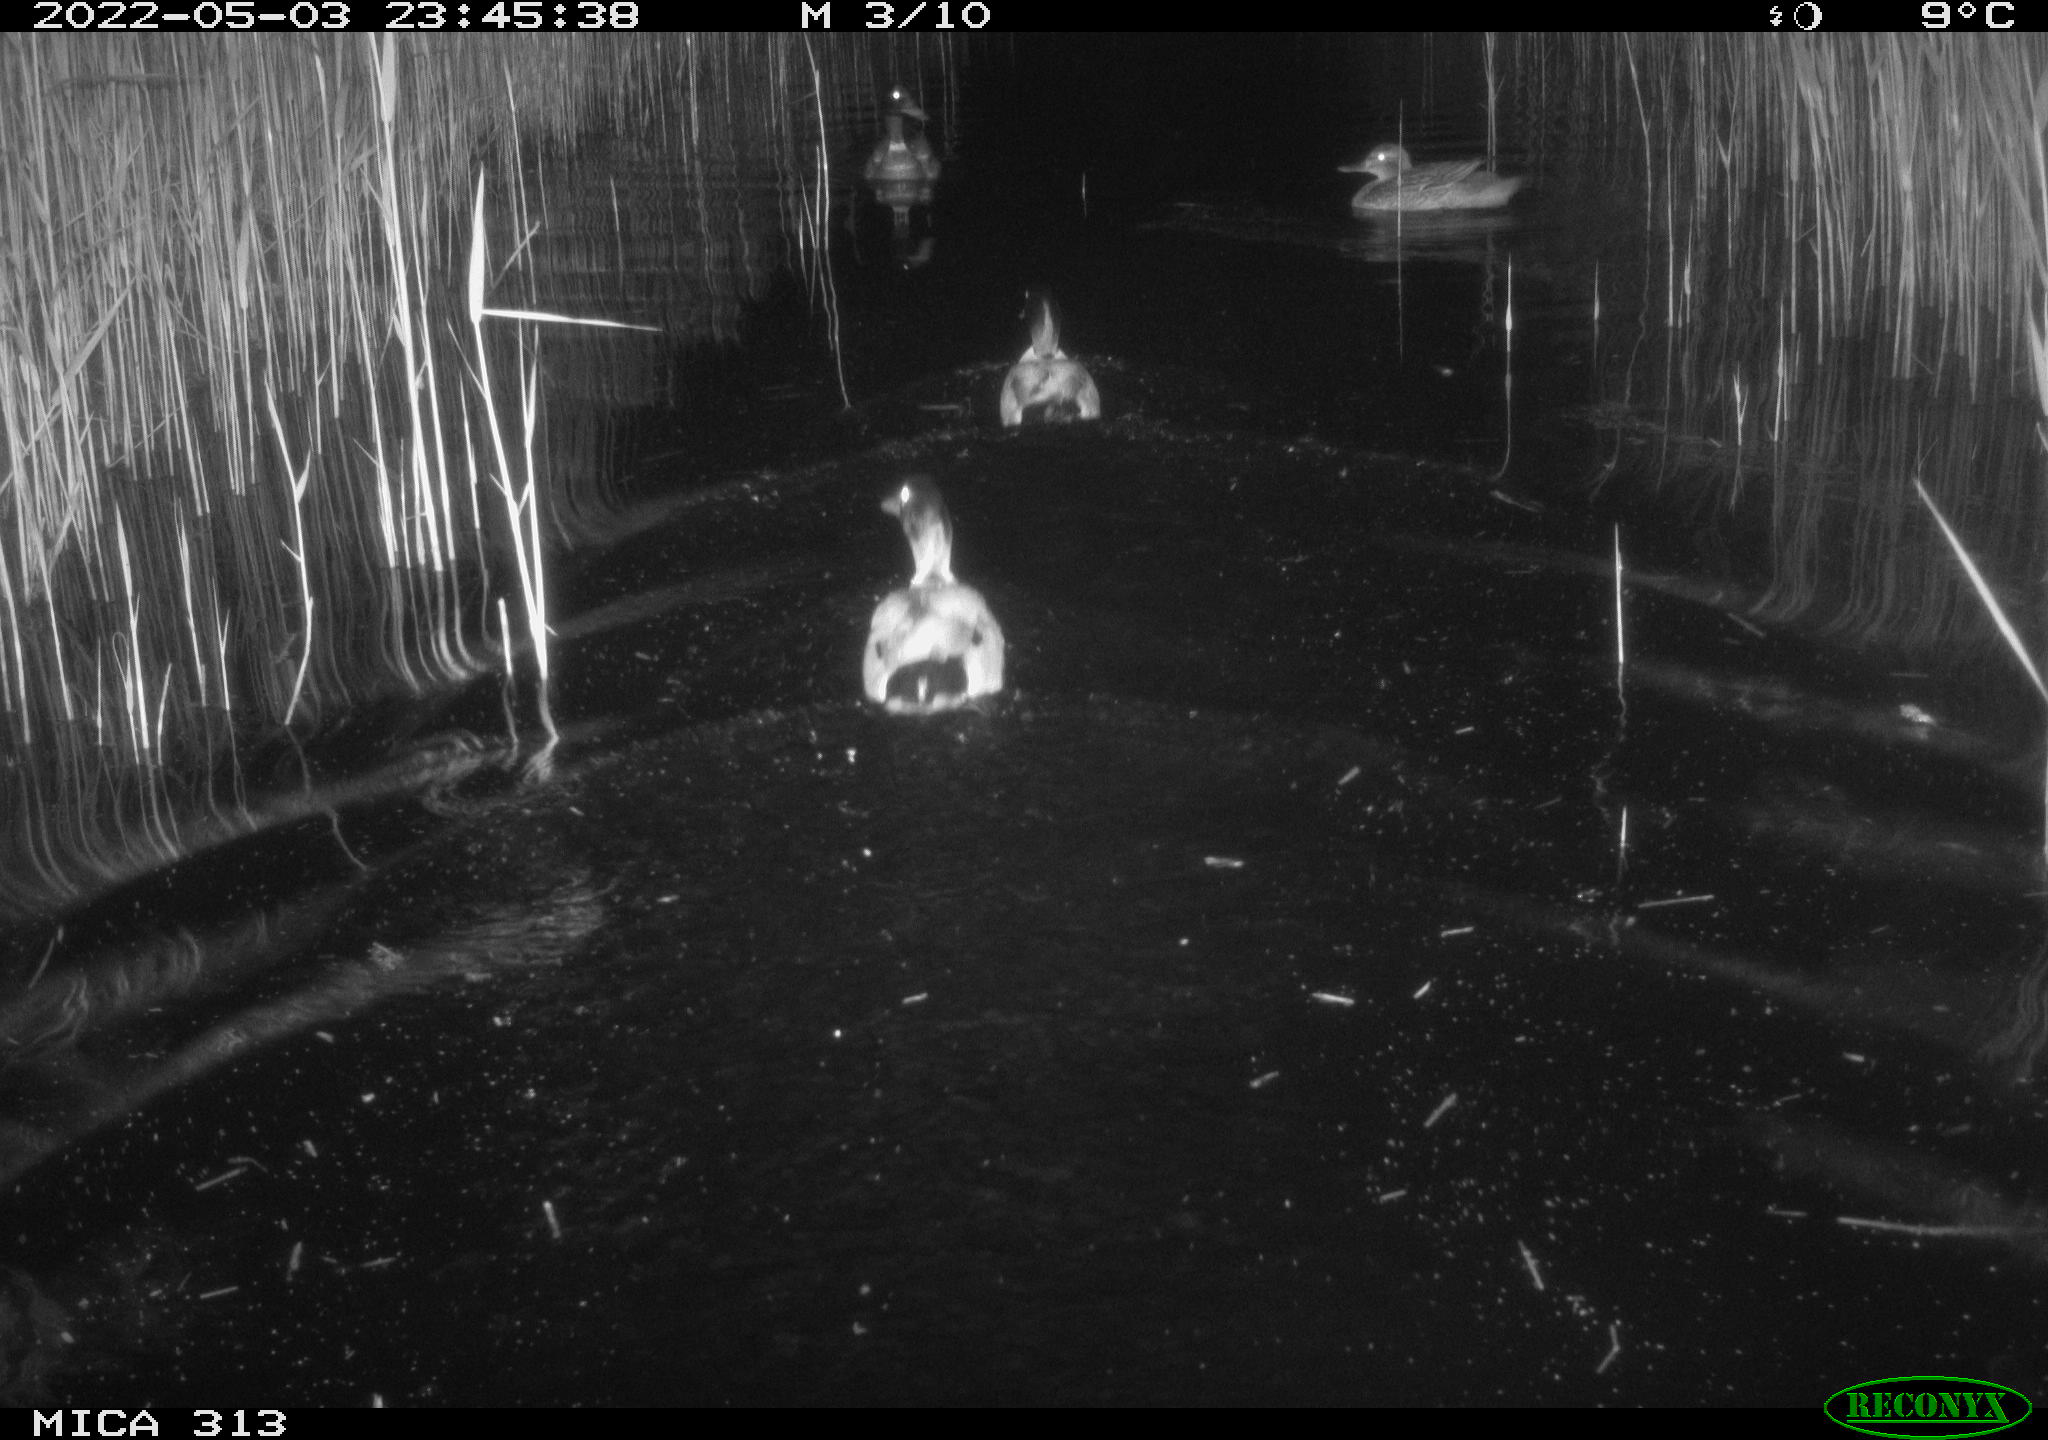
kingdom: Animalia
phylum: Chordata
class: Aves
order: Anseriformes
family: Anatidae
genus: Anas
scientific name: Anas platyrhynchos
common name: Mallard
